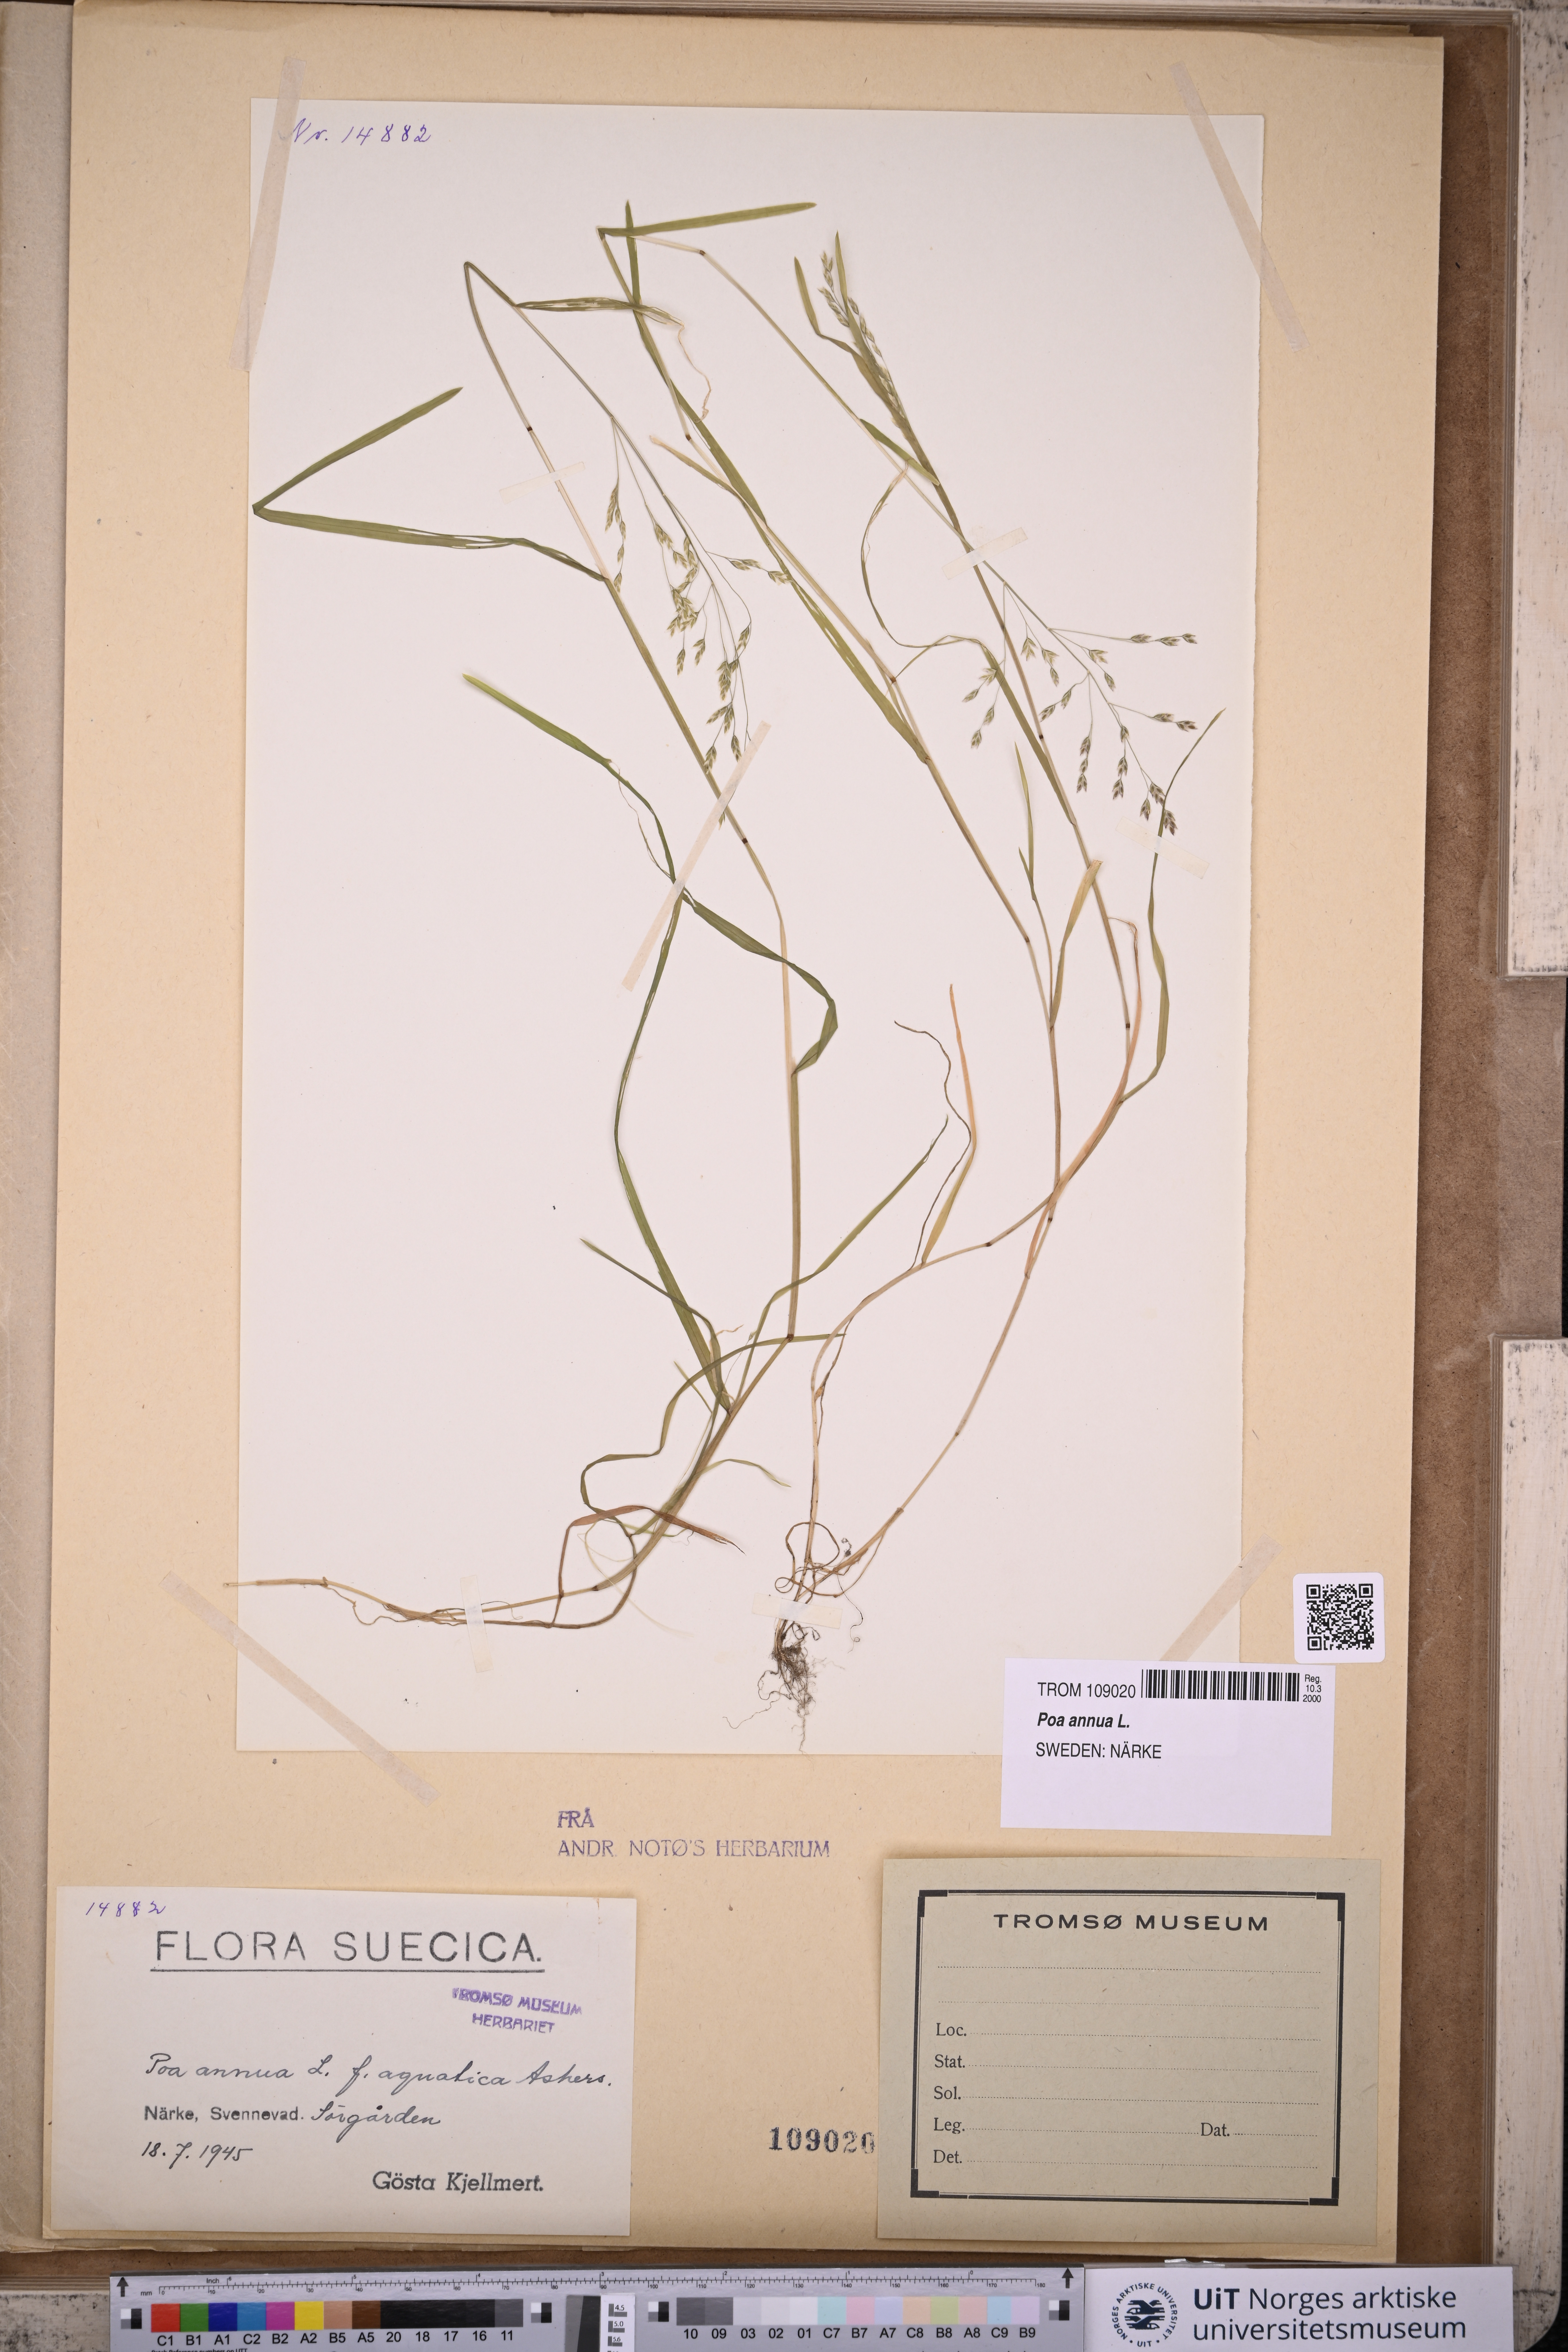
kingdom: Plantae
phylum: Tracheophyta
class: Liliopsida
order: Poales
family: Poaceae
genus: Poa
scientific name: Poa annua
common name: Annual bluegrass
